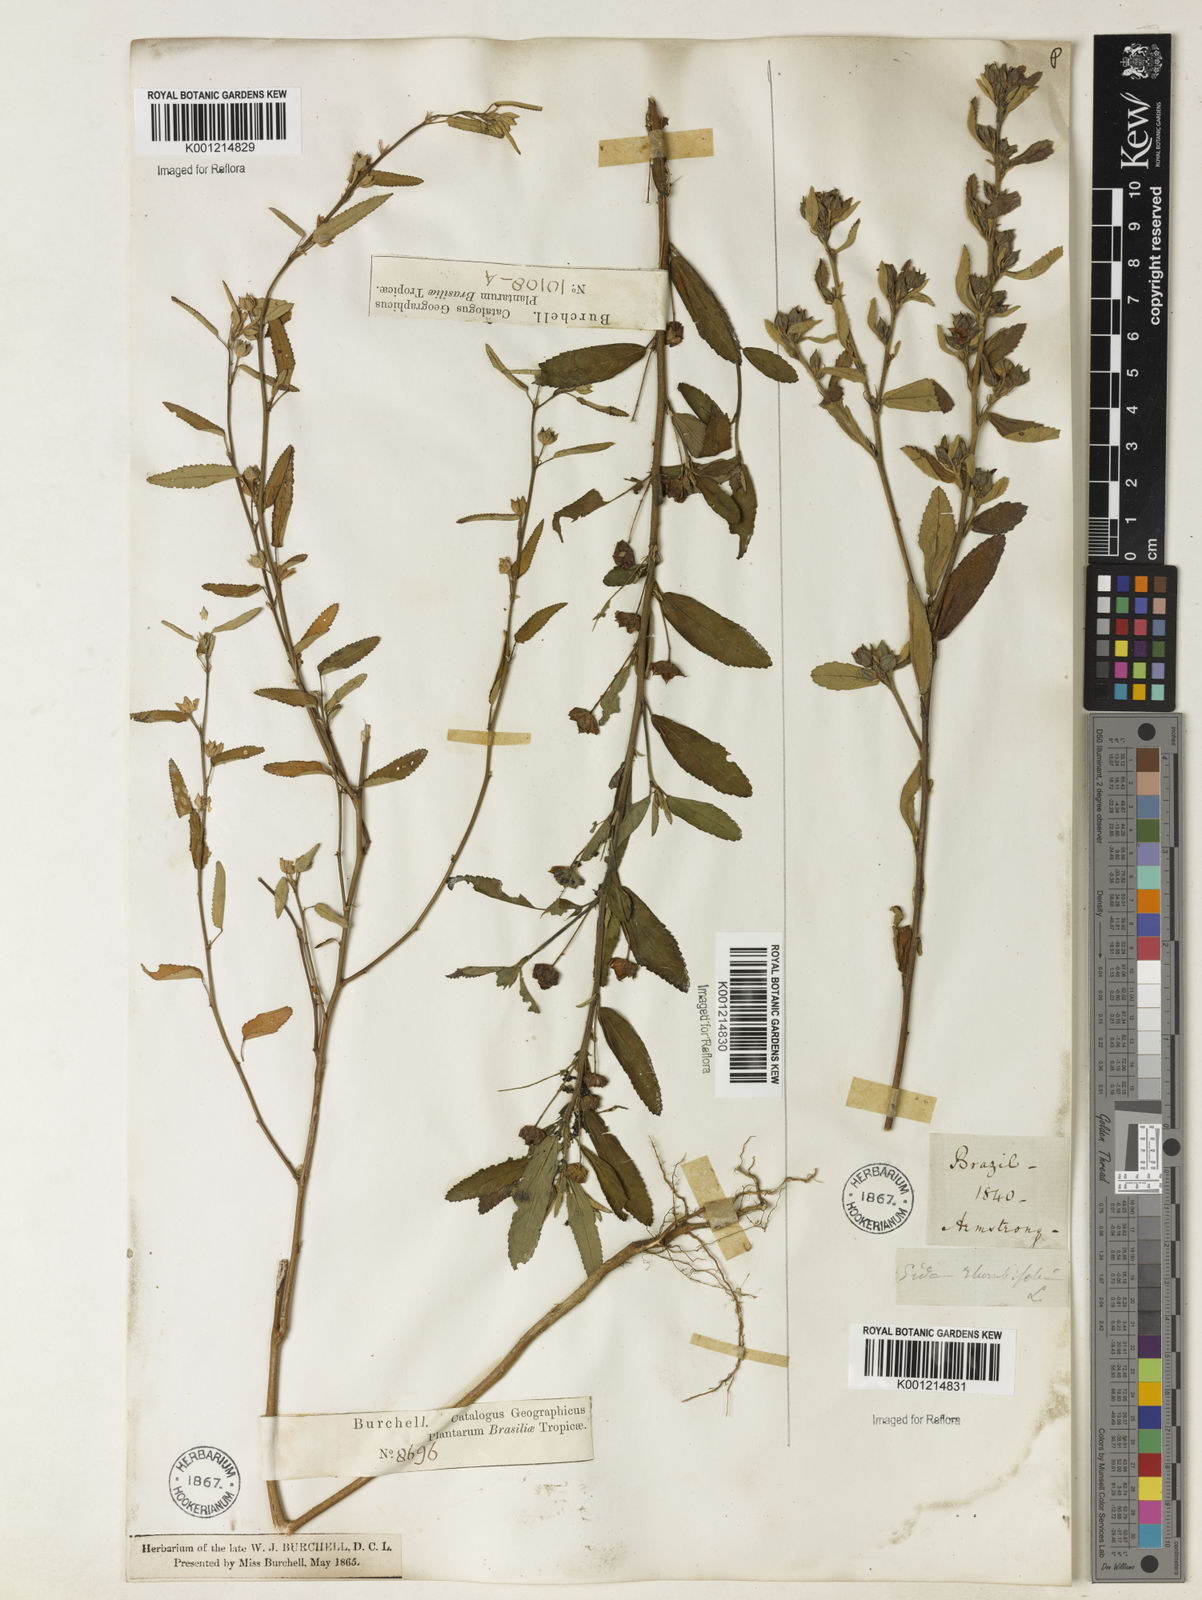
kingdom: Plantae
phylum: Tracheophyta
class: Magnoliopsida
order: Malvales
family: Malvaceae
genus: Sida
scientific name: Sida rhombifolia
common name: Queensland-hemp
